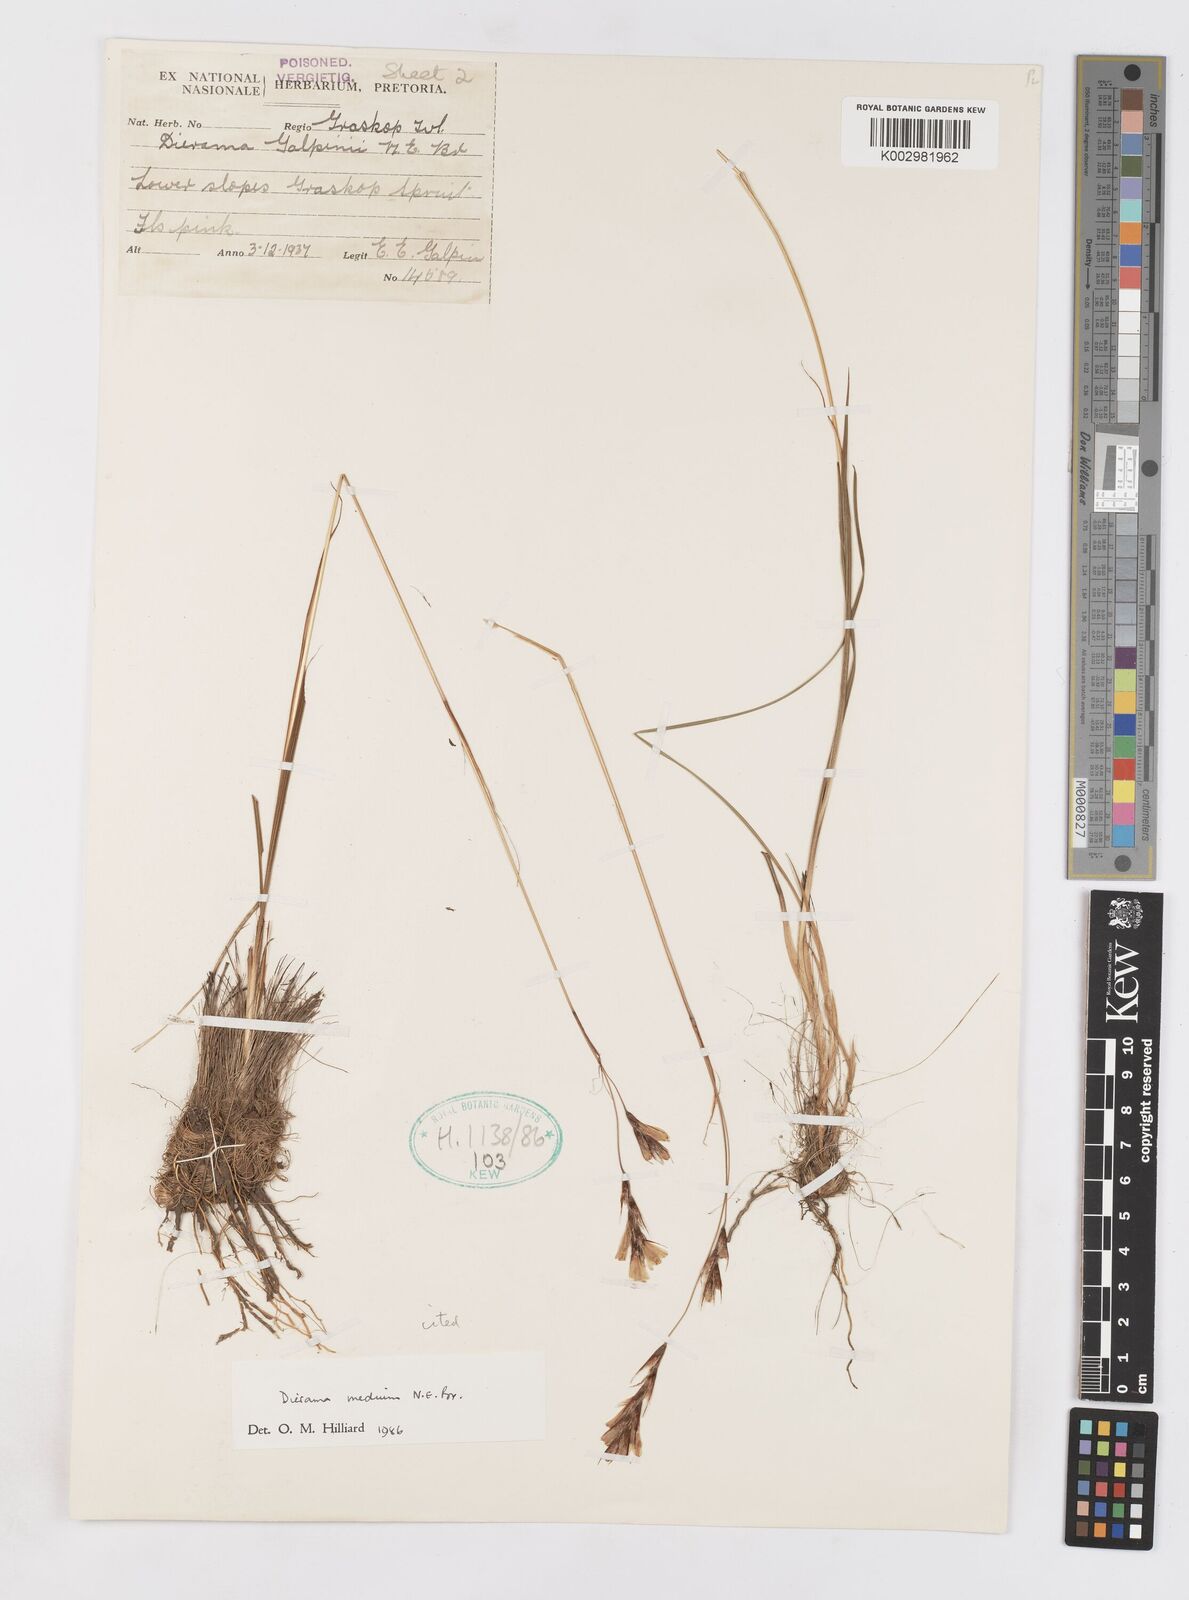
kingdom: Plantae
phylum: Tracheophyta
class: Liliopsida
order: Asparagales
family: Iridaceae
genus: Dierama
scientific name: Dierama medium
